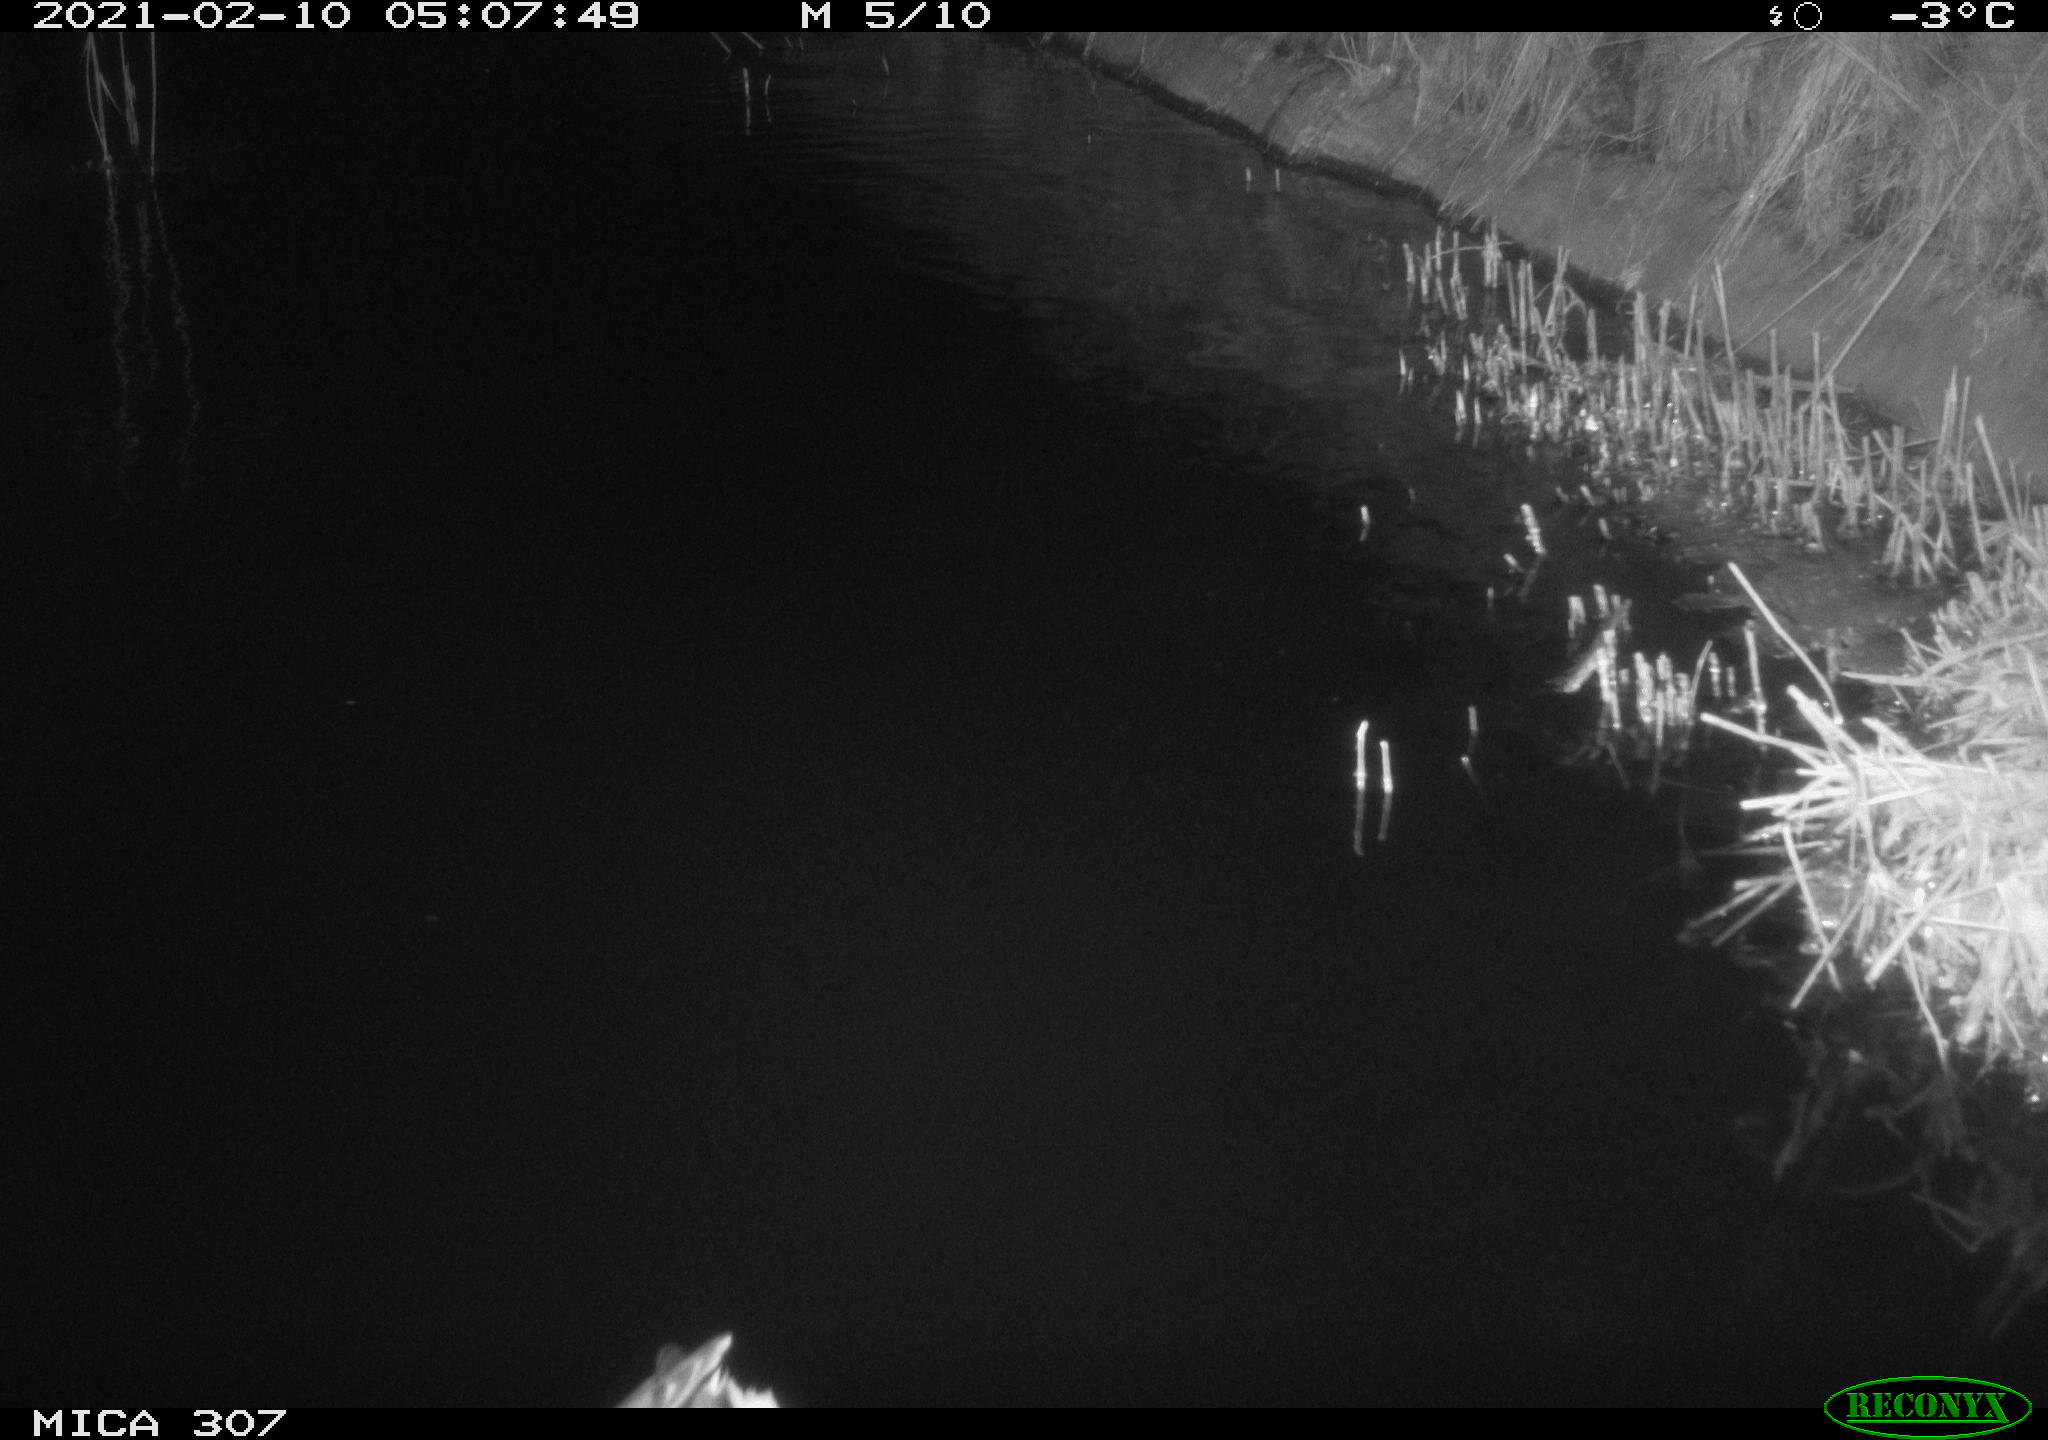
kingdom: Animalia
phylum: Chordata
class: Aves
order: Anseriformes
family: Anatidae
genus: Anas
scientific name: Anas platyrhynchos
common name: Mallard
